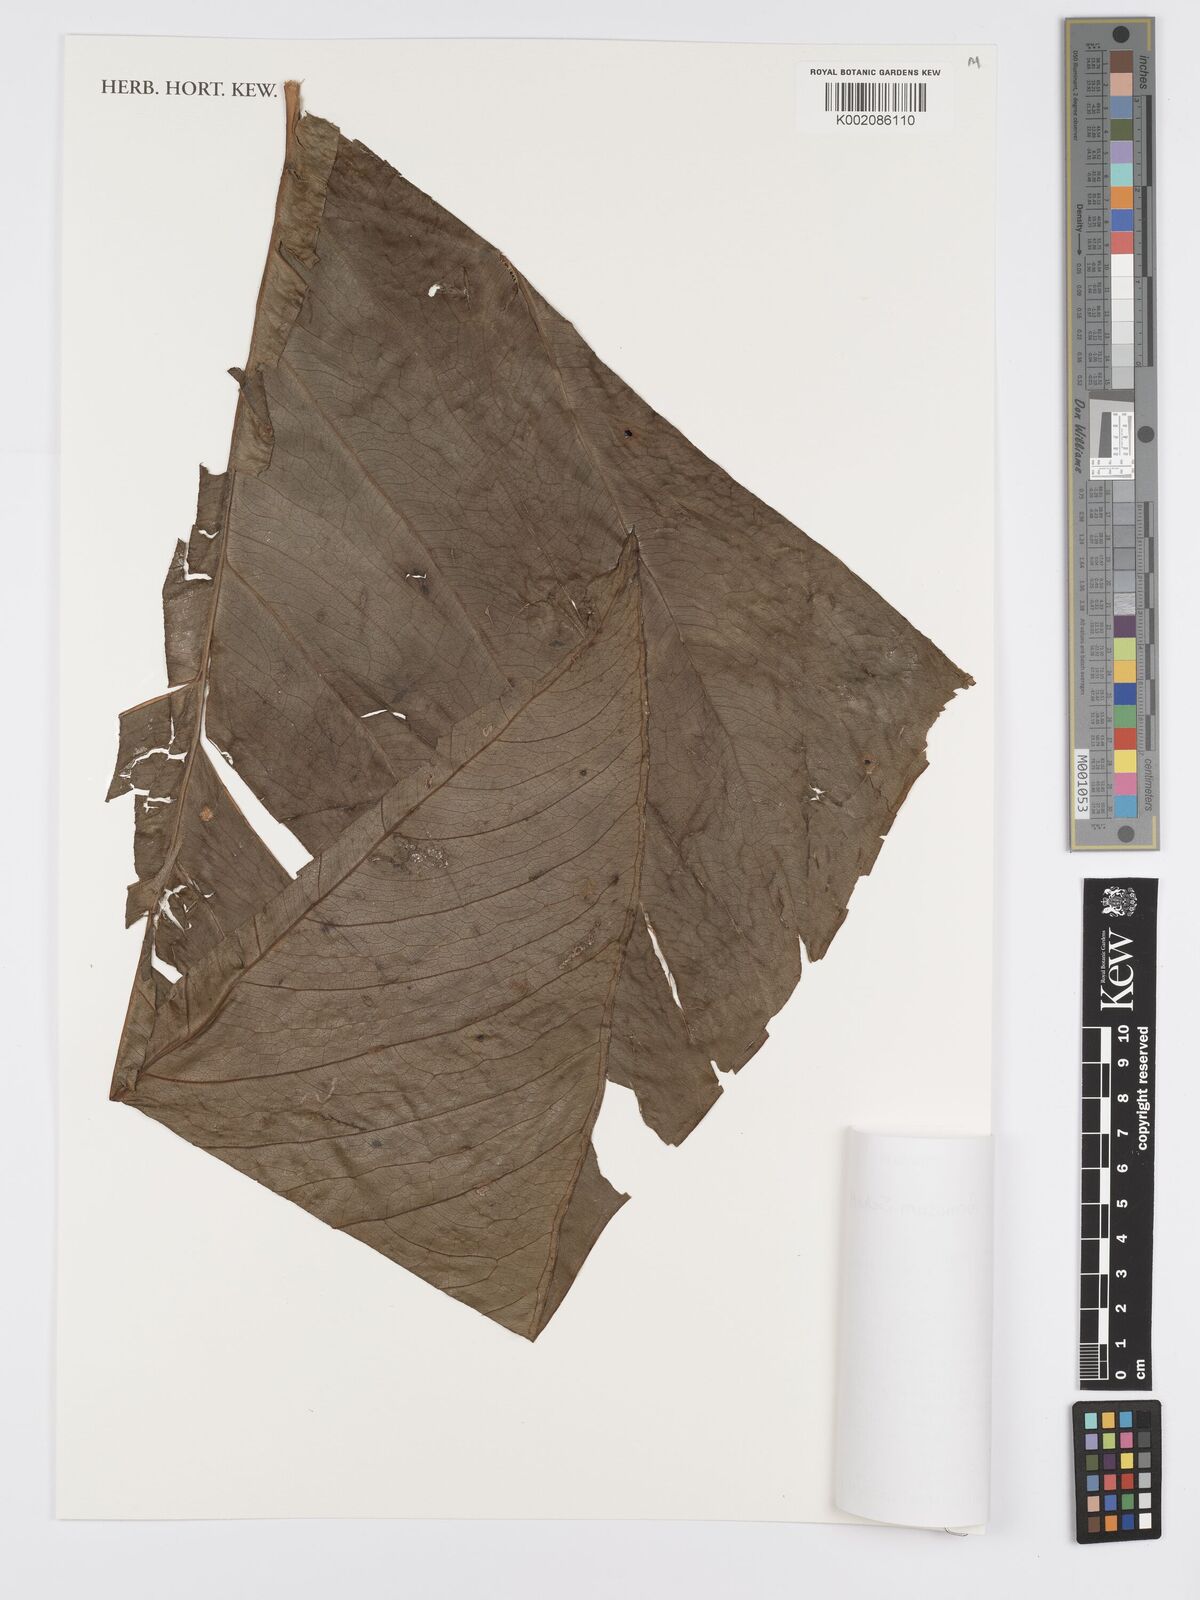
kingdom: Plantae
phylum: Tracheophyta
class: Liliopsida
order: Alismatales
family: Araceae
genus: Anthurium
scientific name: Anthurium formosum
